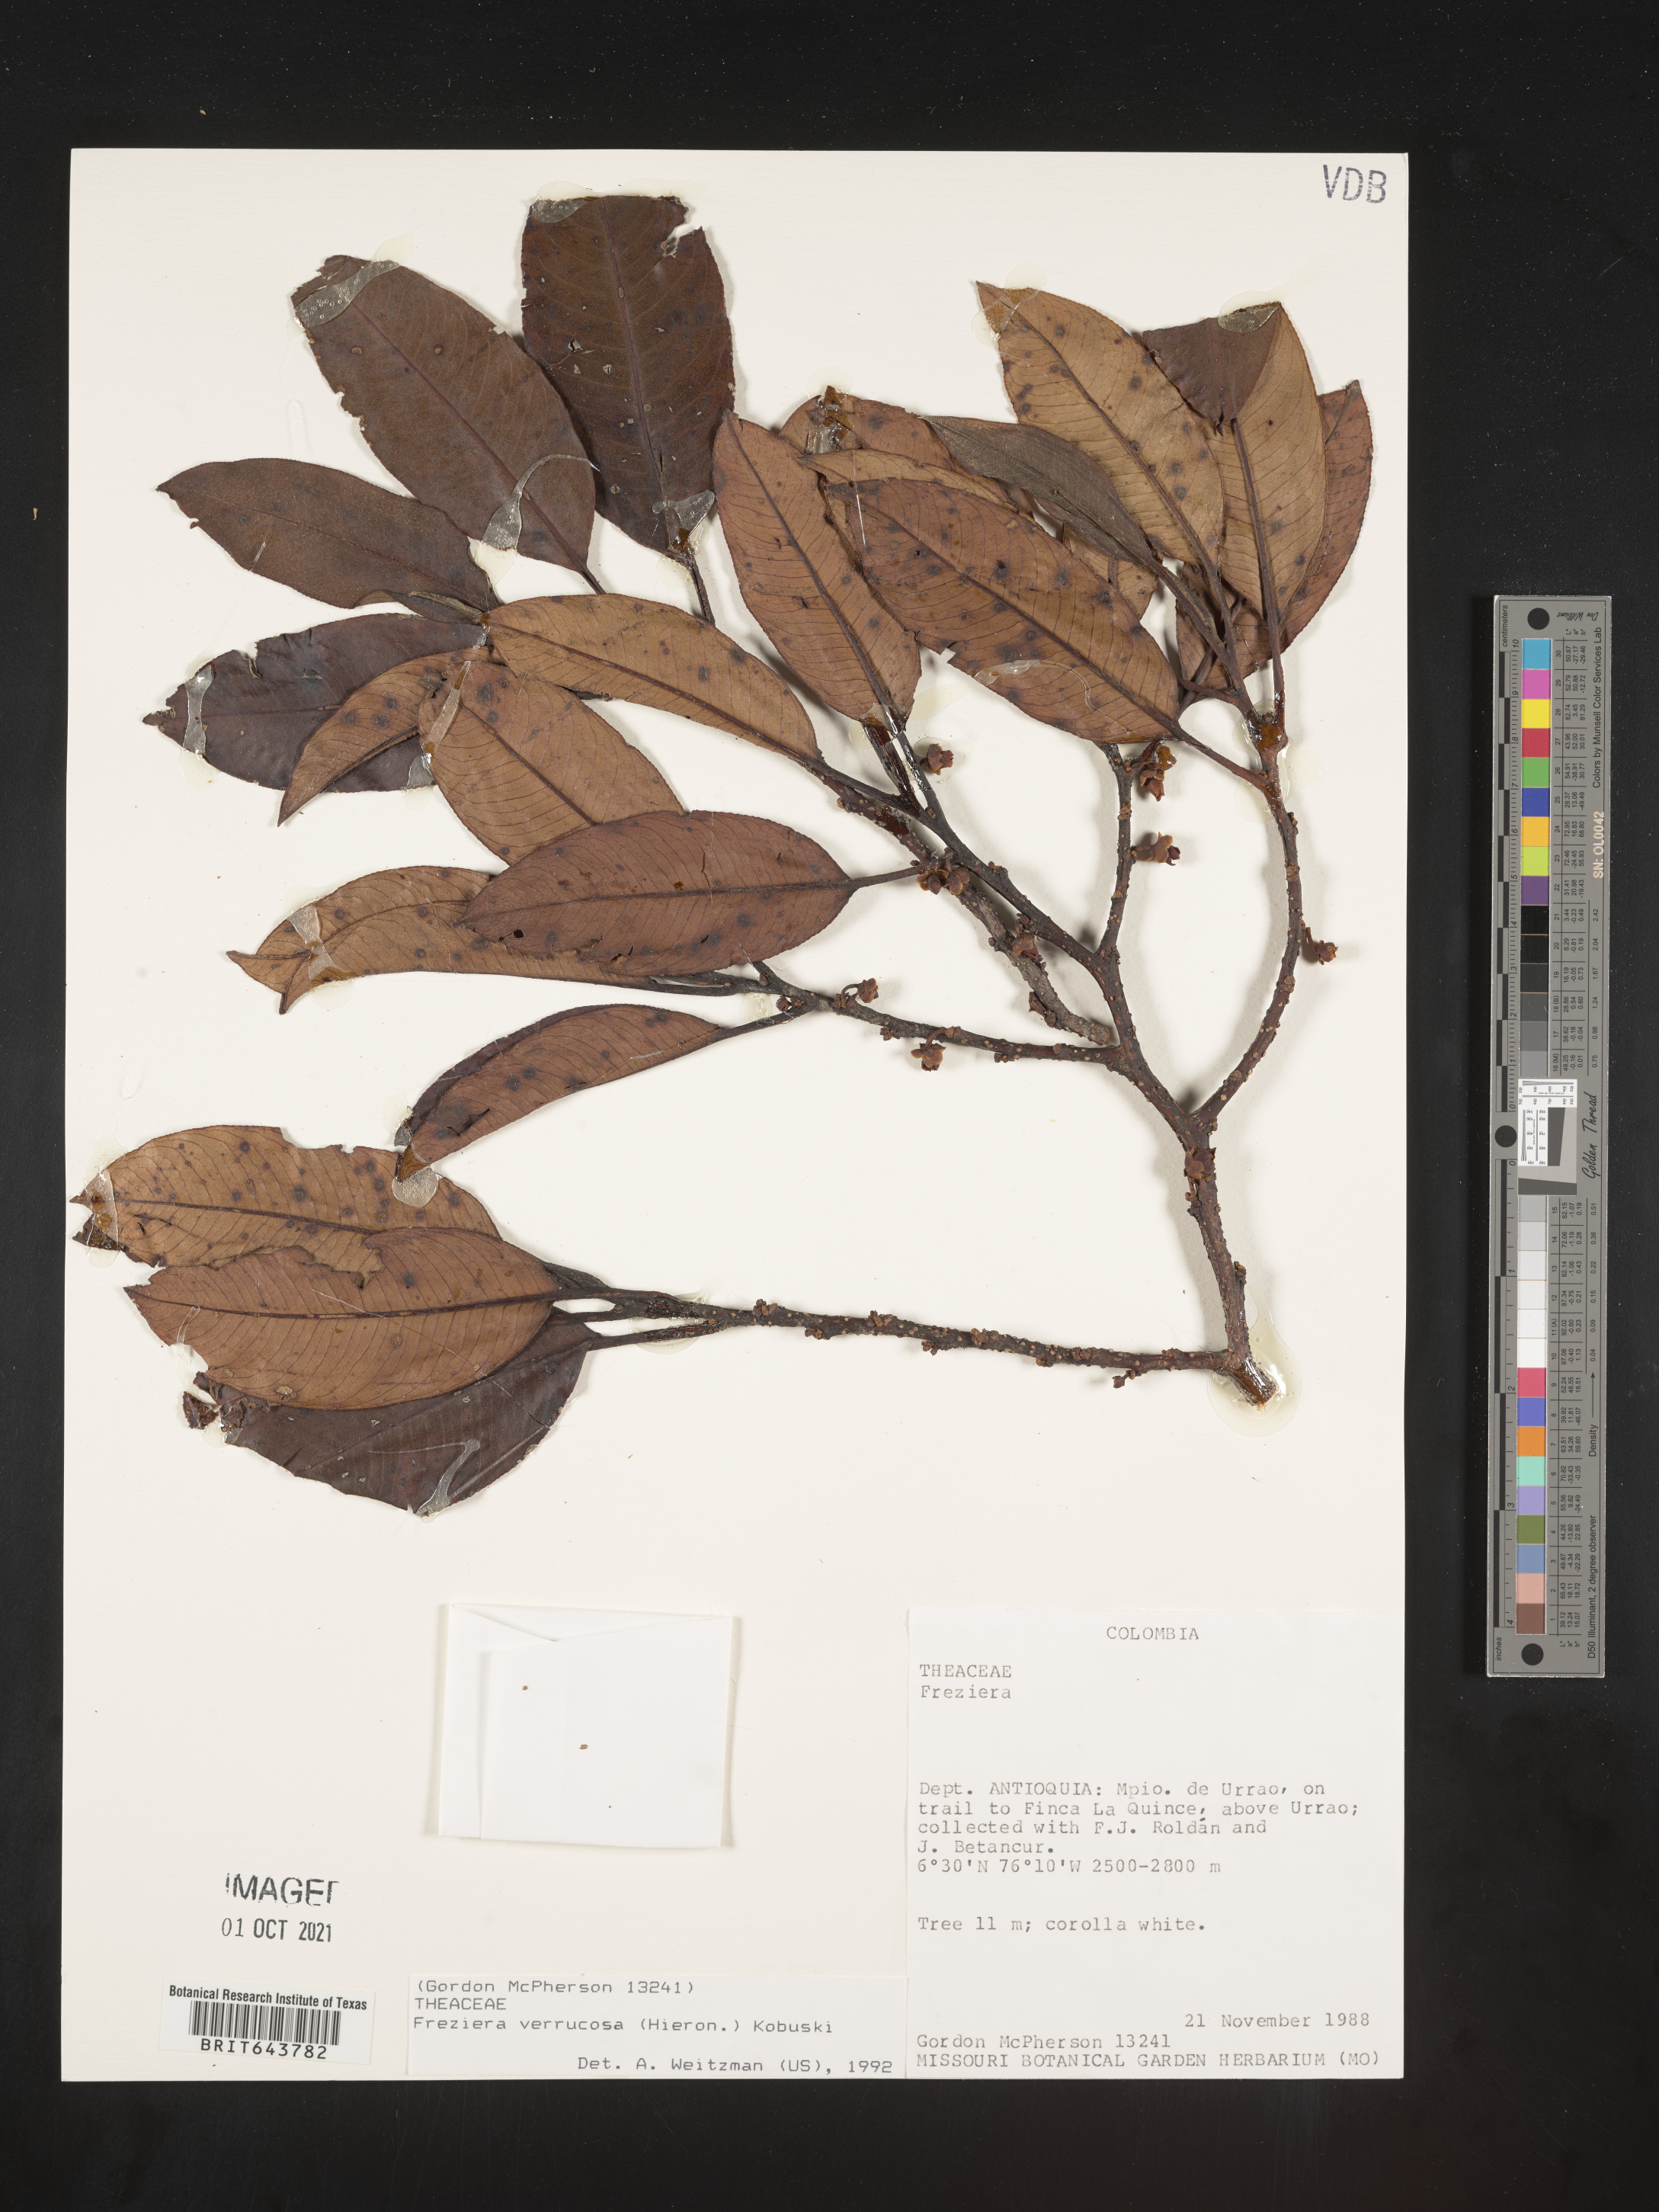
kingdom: Plantae
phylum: Tracheophyta
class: Magnoliopsida
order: Ericales
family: Pentaphylacaceae
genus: Freziera
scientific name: Freziera
